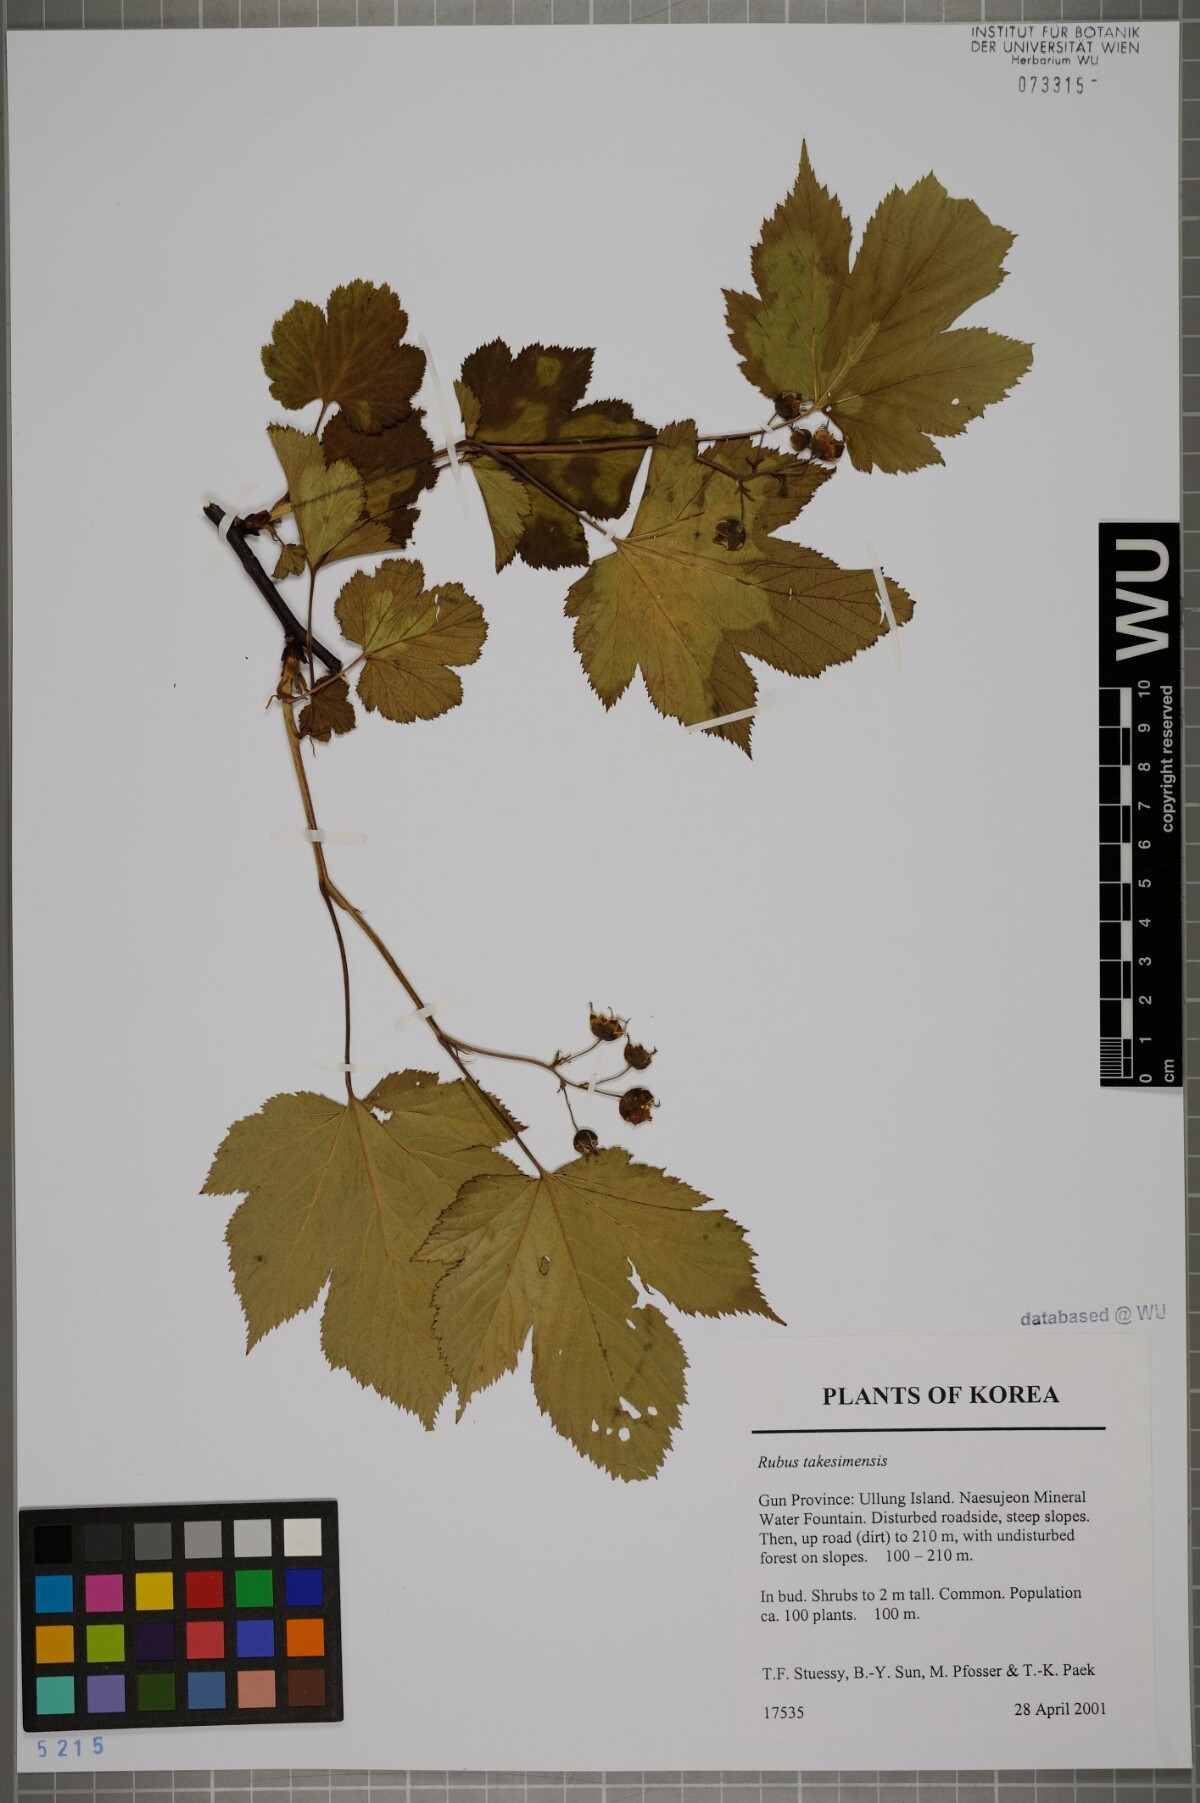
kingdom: Plantae
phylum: Tracheophyta
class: Magnoliopsida
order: Rosales
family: Rosaceae
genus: Rubus
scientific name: Rubus crataegifolius
